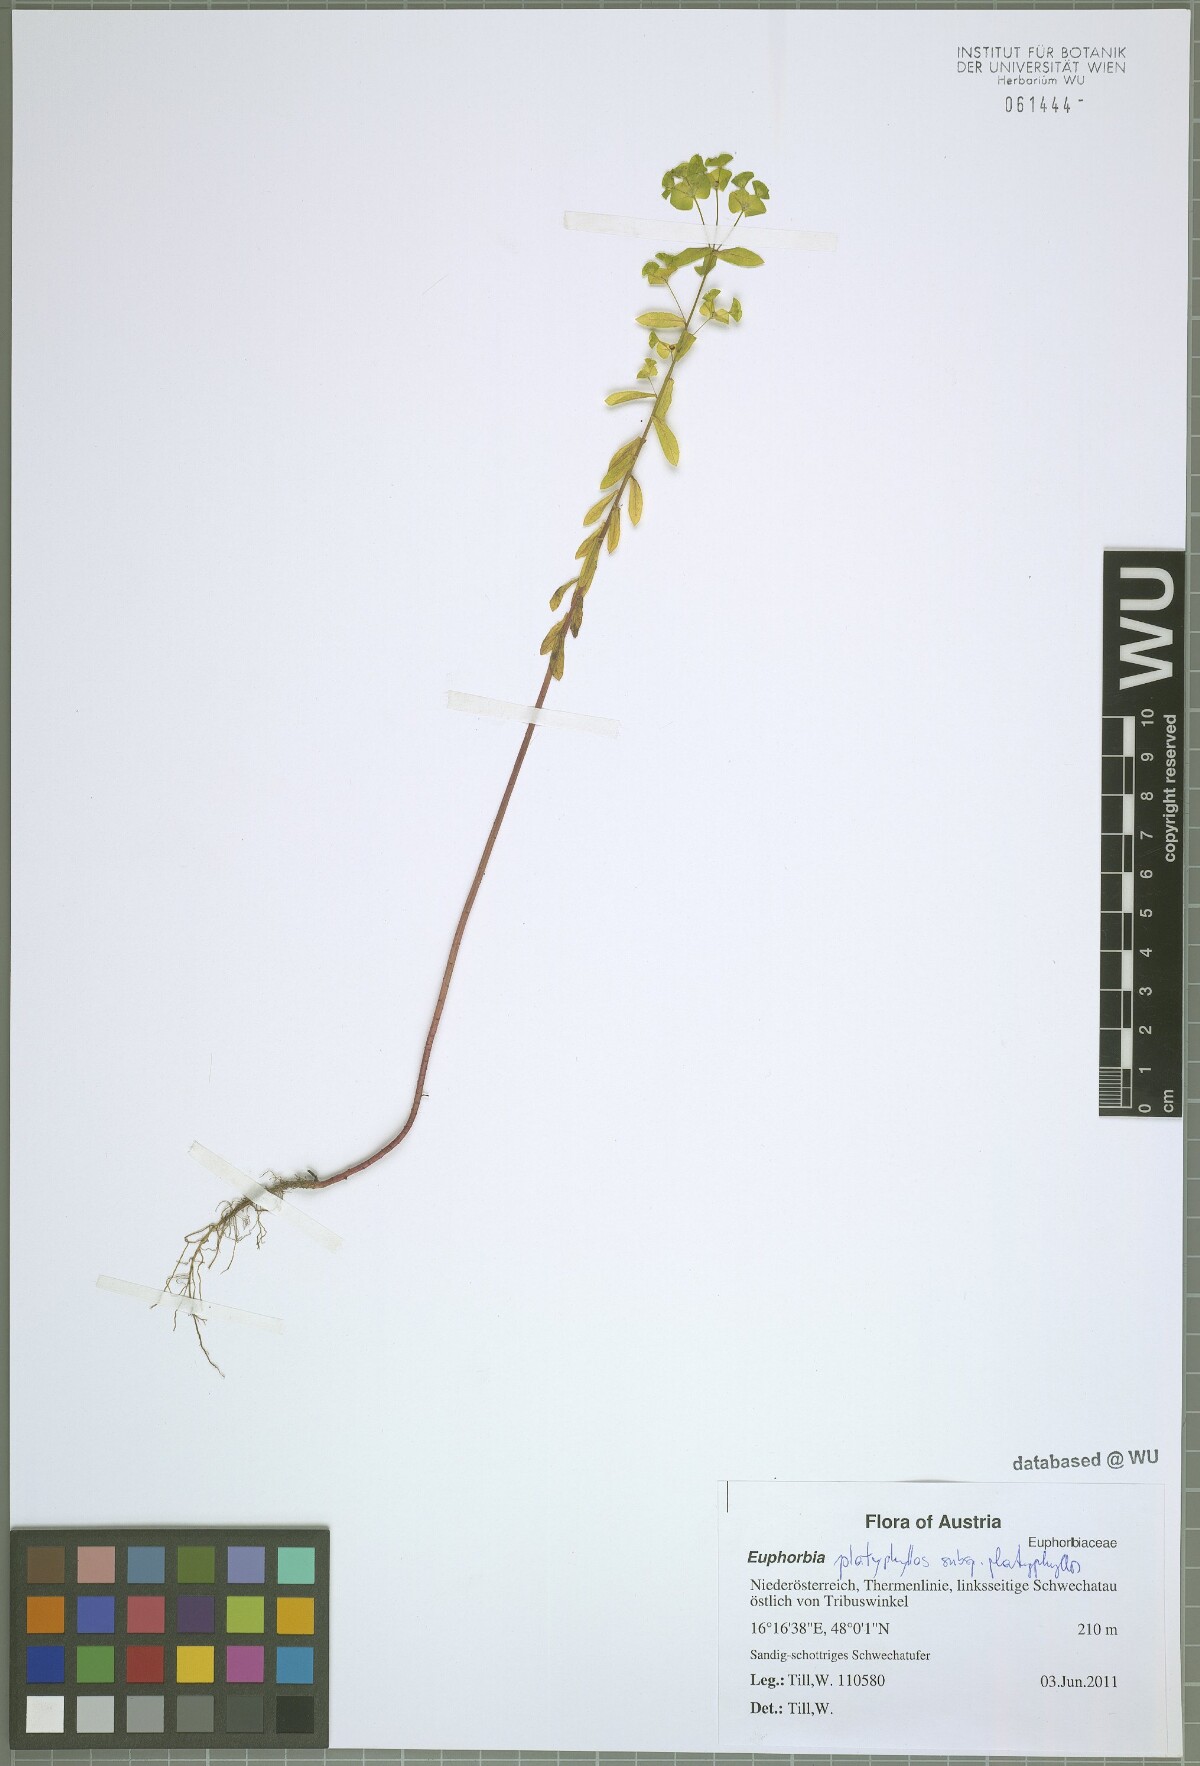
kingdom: Plantae
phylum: Tracheophyta
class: Magnoliopsida
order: Malpighiales
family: Euphorbiaceae
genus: Euphorbia
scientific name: Euphorbia platyphyllos
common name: Broad-leaved spurge
